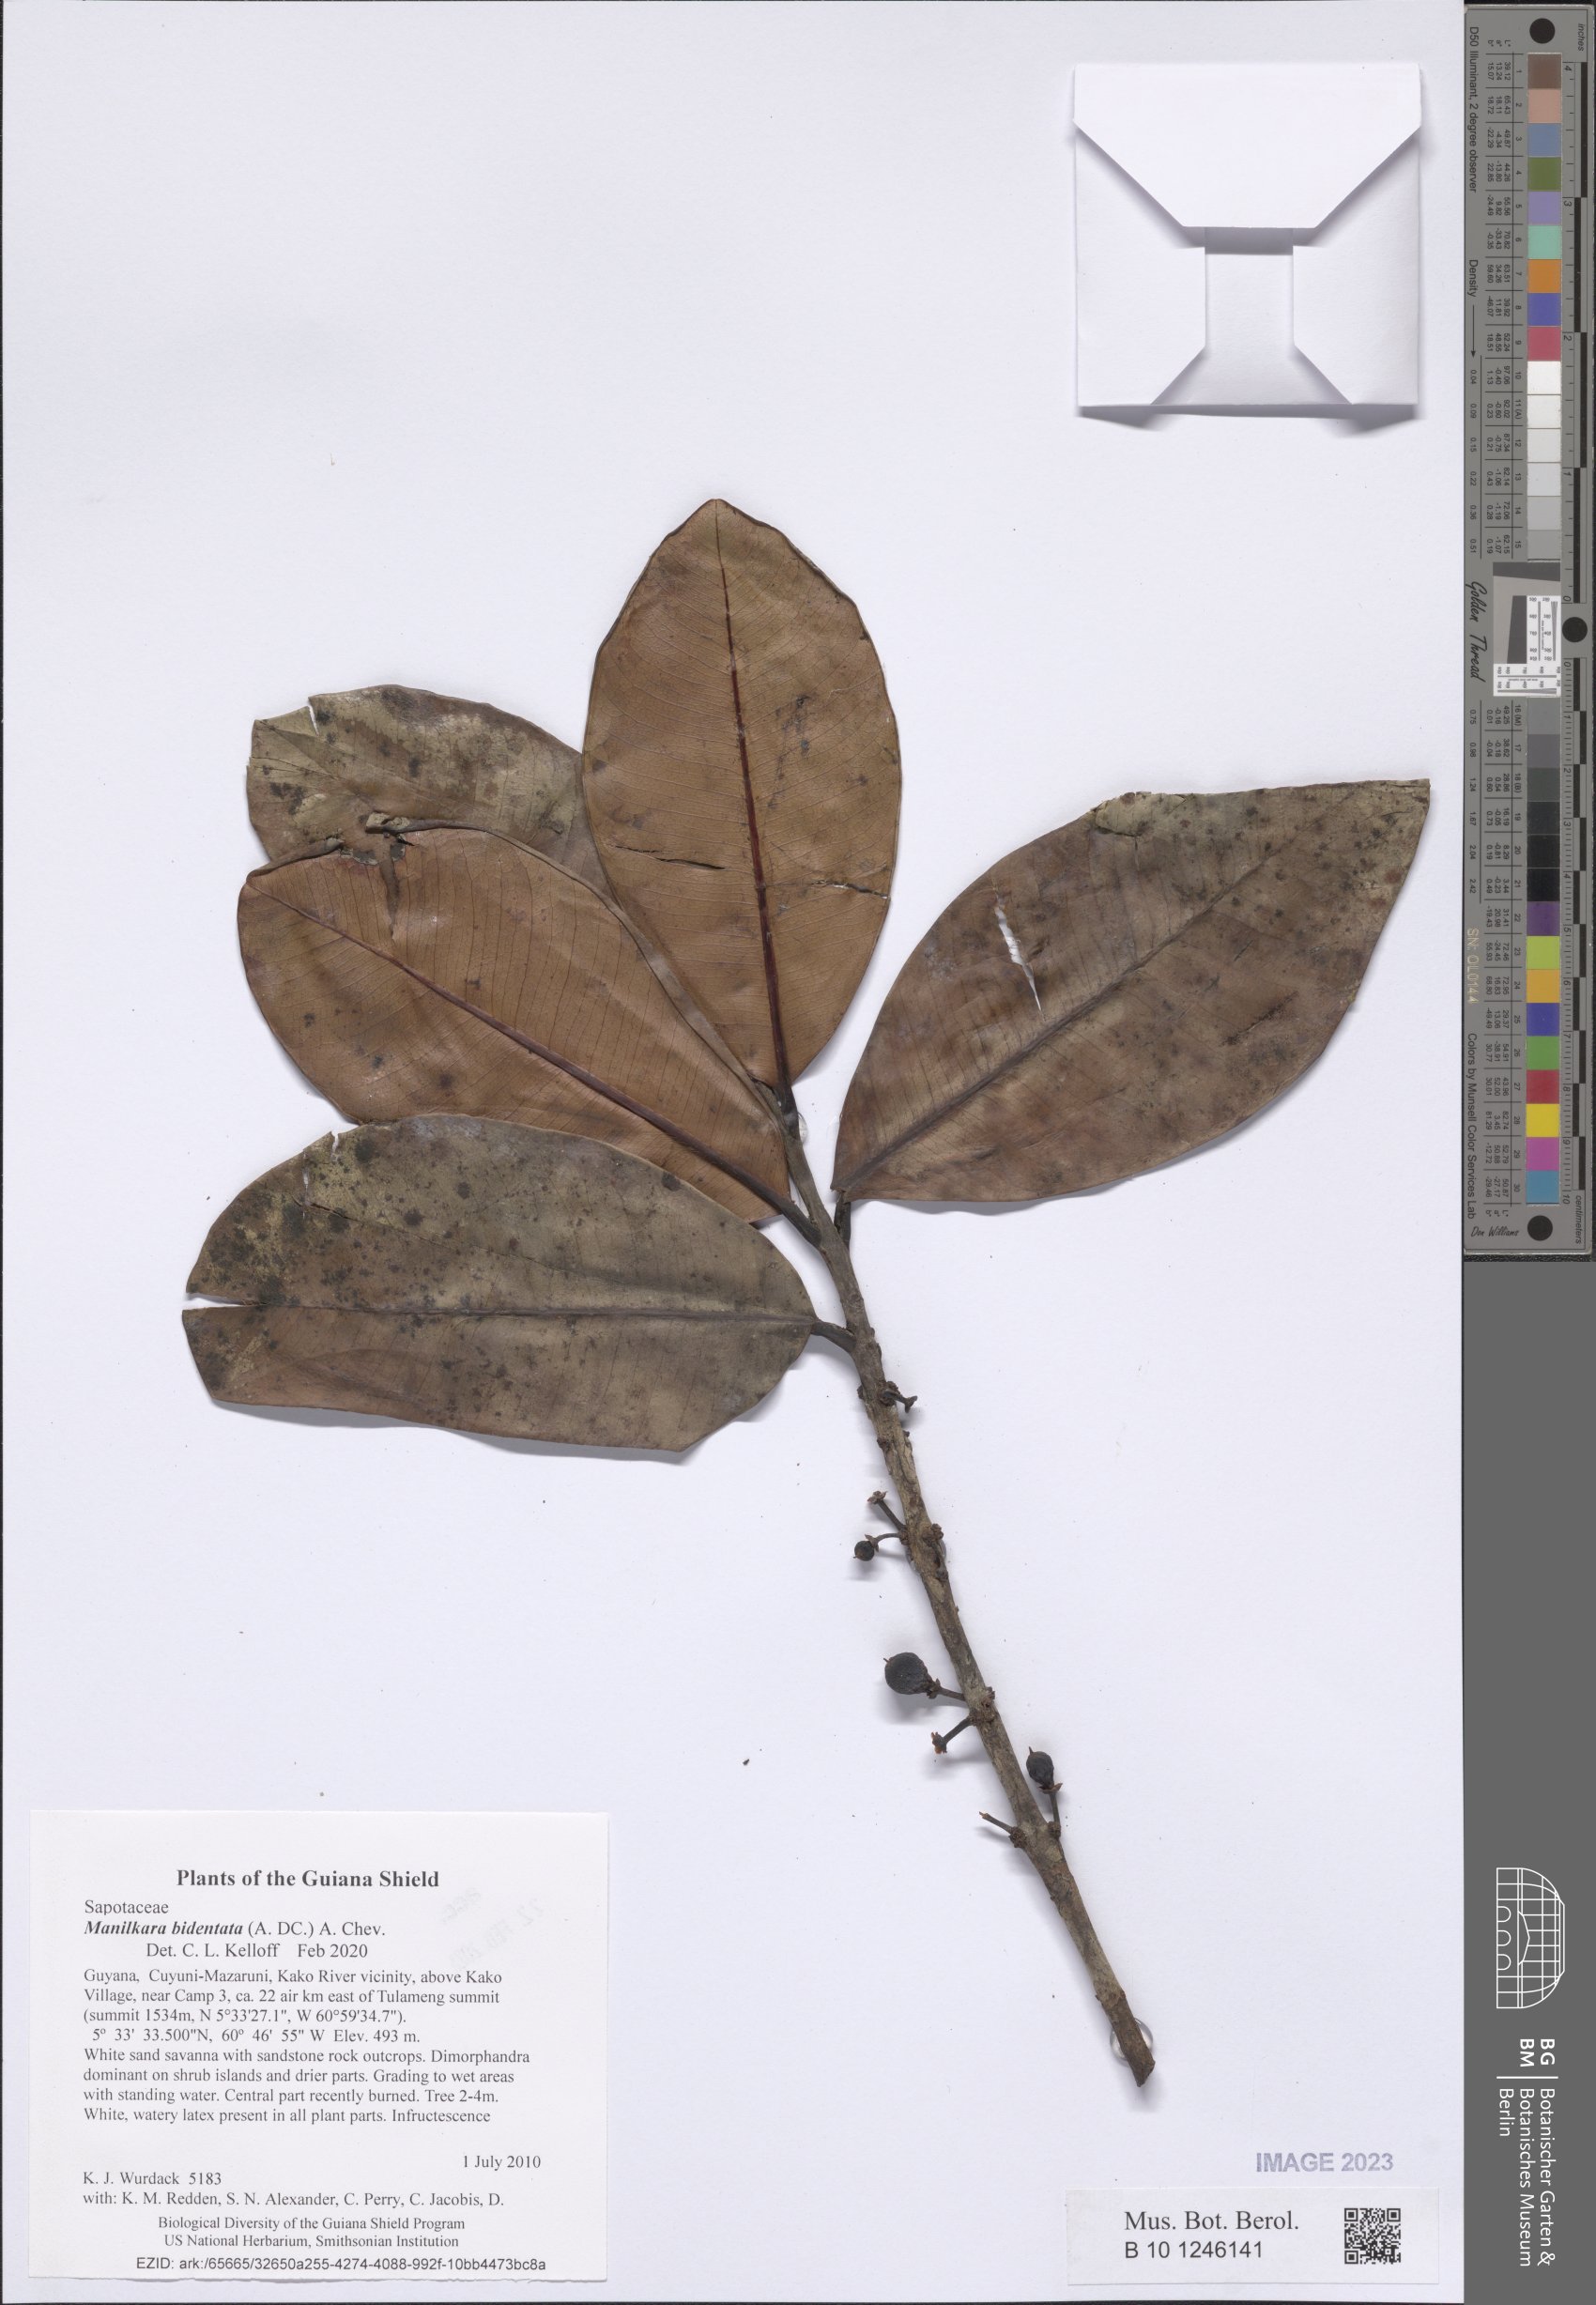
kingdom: Plantae
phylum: Tracheophyta
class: Magnoliopsida
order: Ericales
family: Sapotaceae
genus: Manilkara
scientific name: Manilkara bidentata
